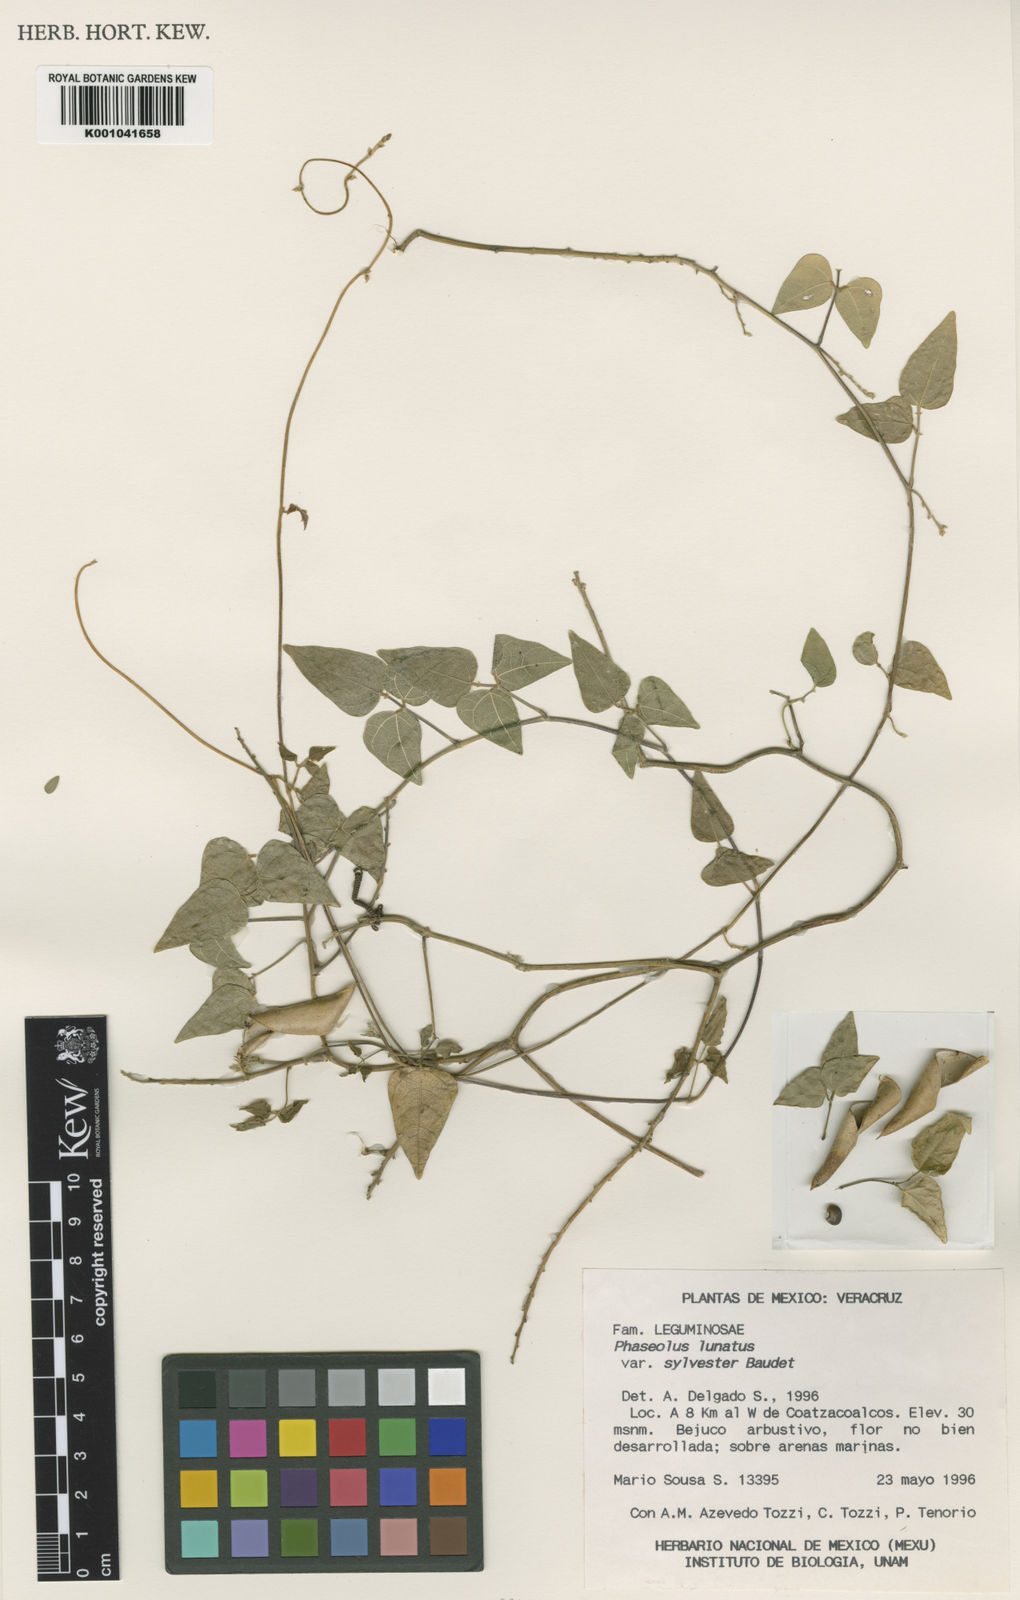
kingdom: Plantae
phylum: Tracheophyta
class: Magnoliopsida
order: Fabales
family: Fabaceae
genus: Phaseolus
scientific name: Phaseolus lunatus
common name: Sieva bean
